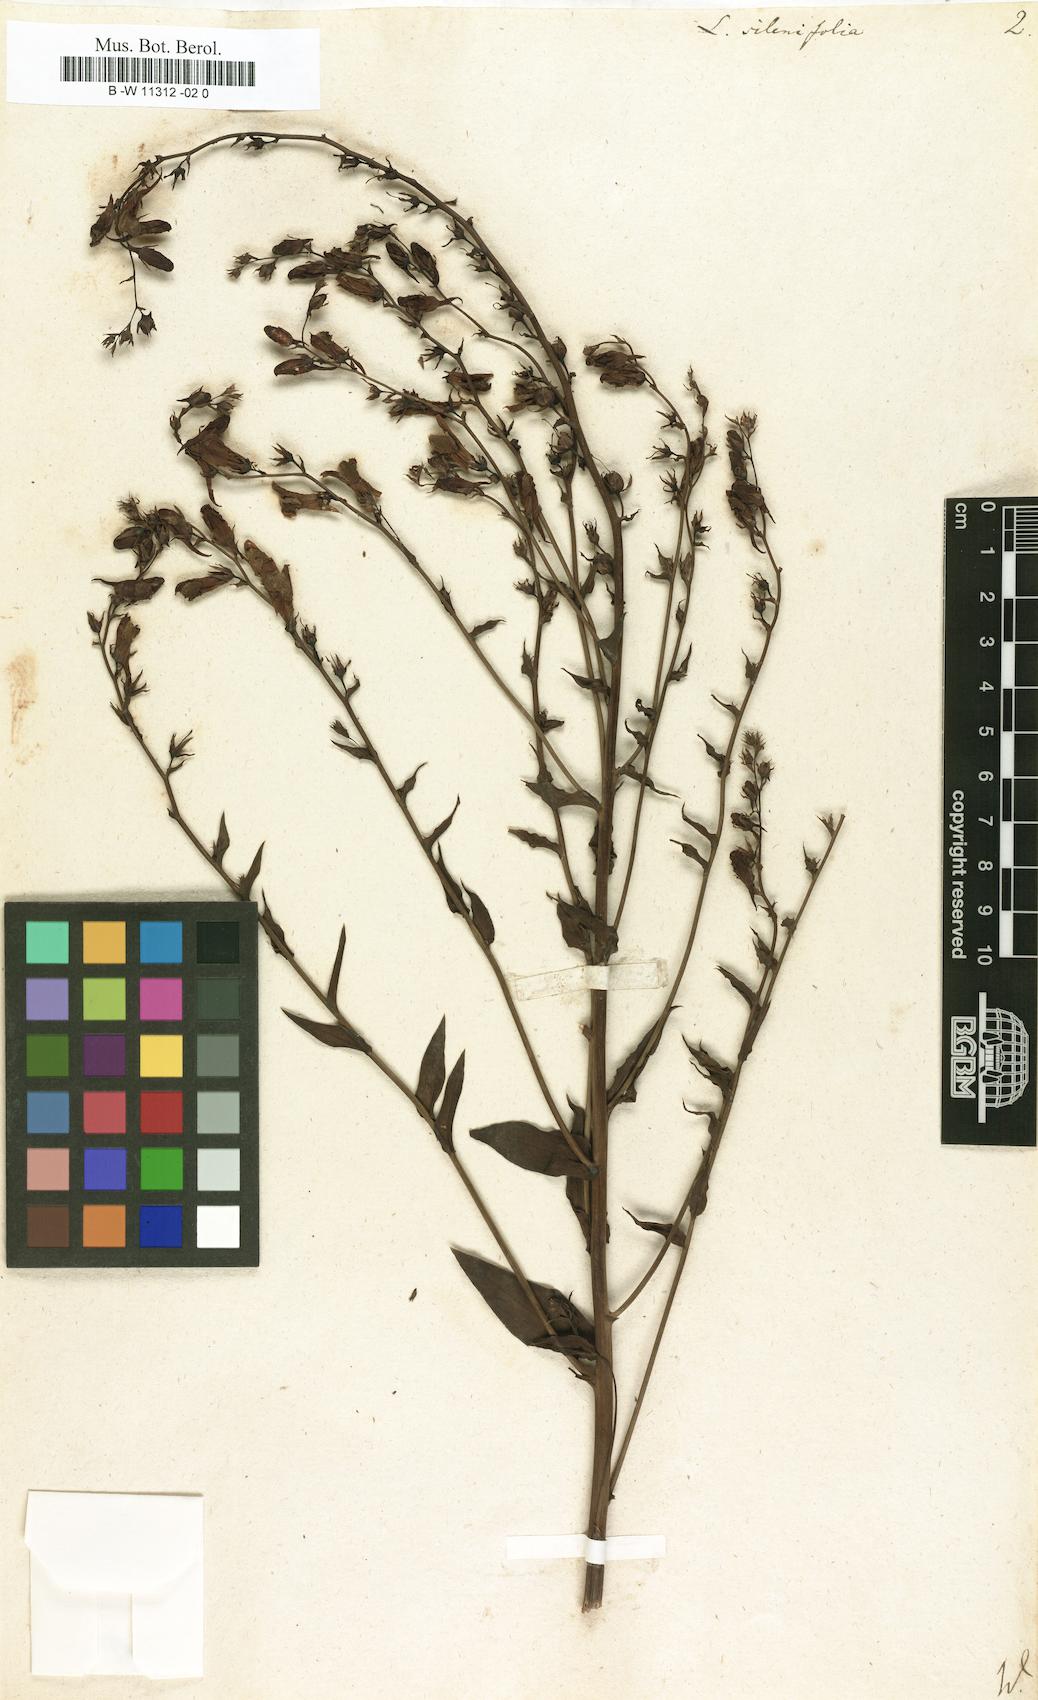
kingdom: Plantae
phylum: Tracheophyta
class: Magnoliopsida
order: Lamiales
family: Plantaginaceae
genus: Linaria
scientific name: Linaria genistifolia
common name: Broomleaf toadflax
